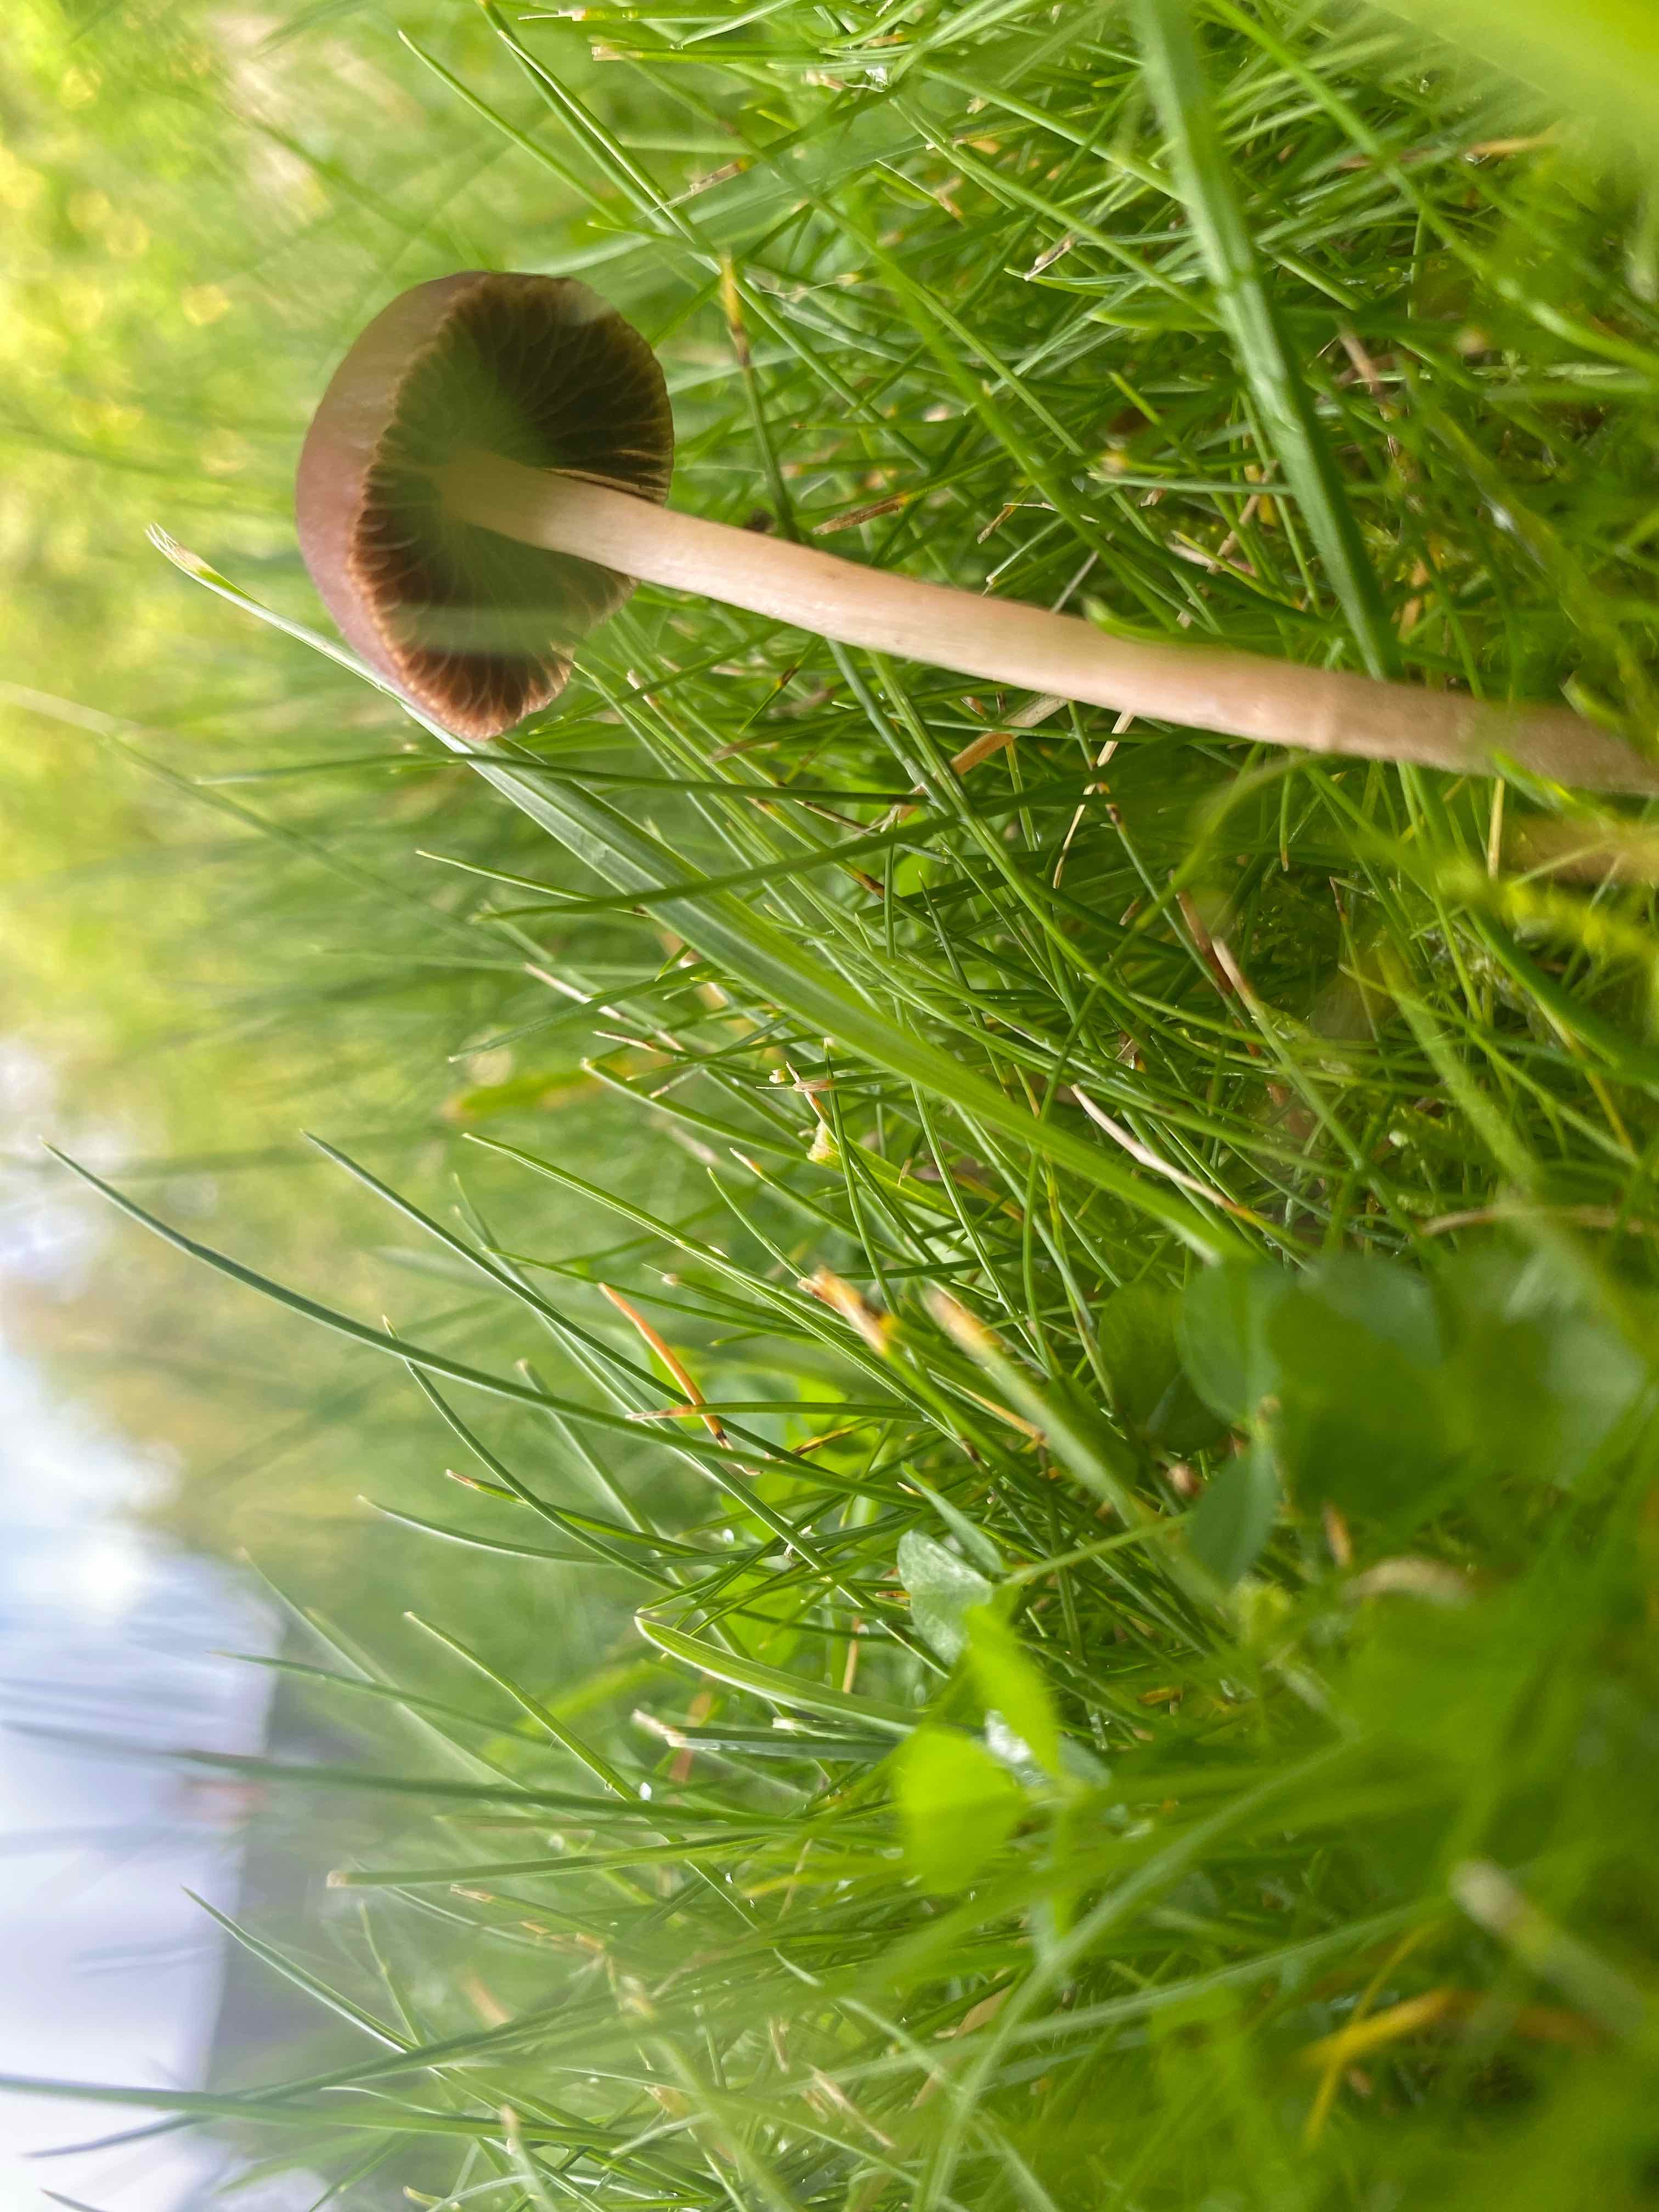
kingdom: Fungi
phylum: Basidiomycota
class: Agaricomycetes
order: Agaricales
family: Bolbitiaceae
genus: Panaeolina
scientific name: Panaeolina foenisecii
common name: høslætsvamp
